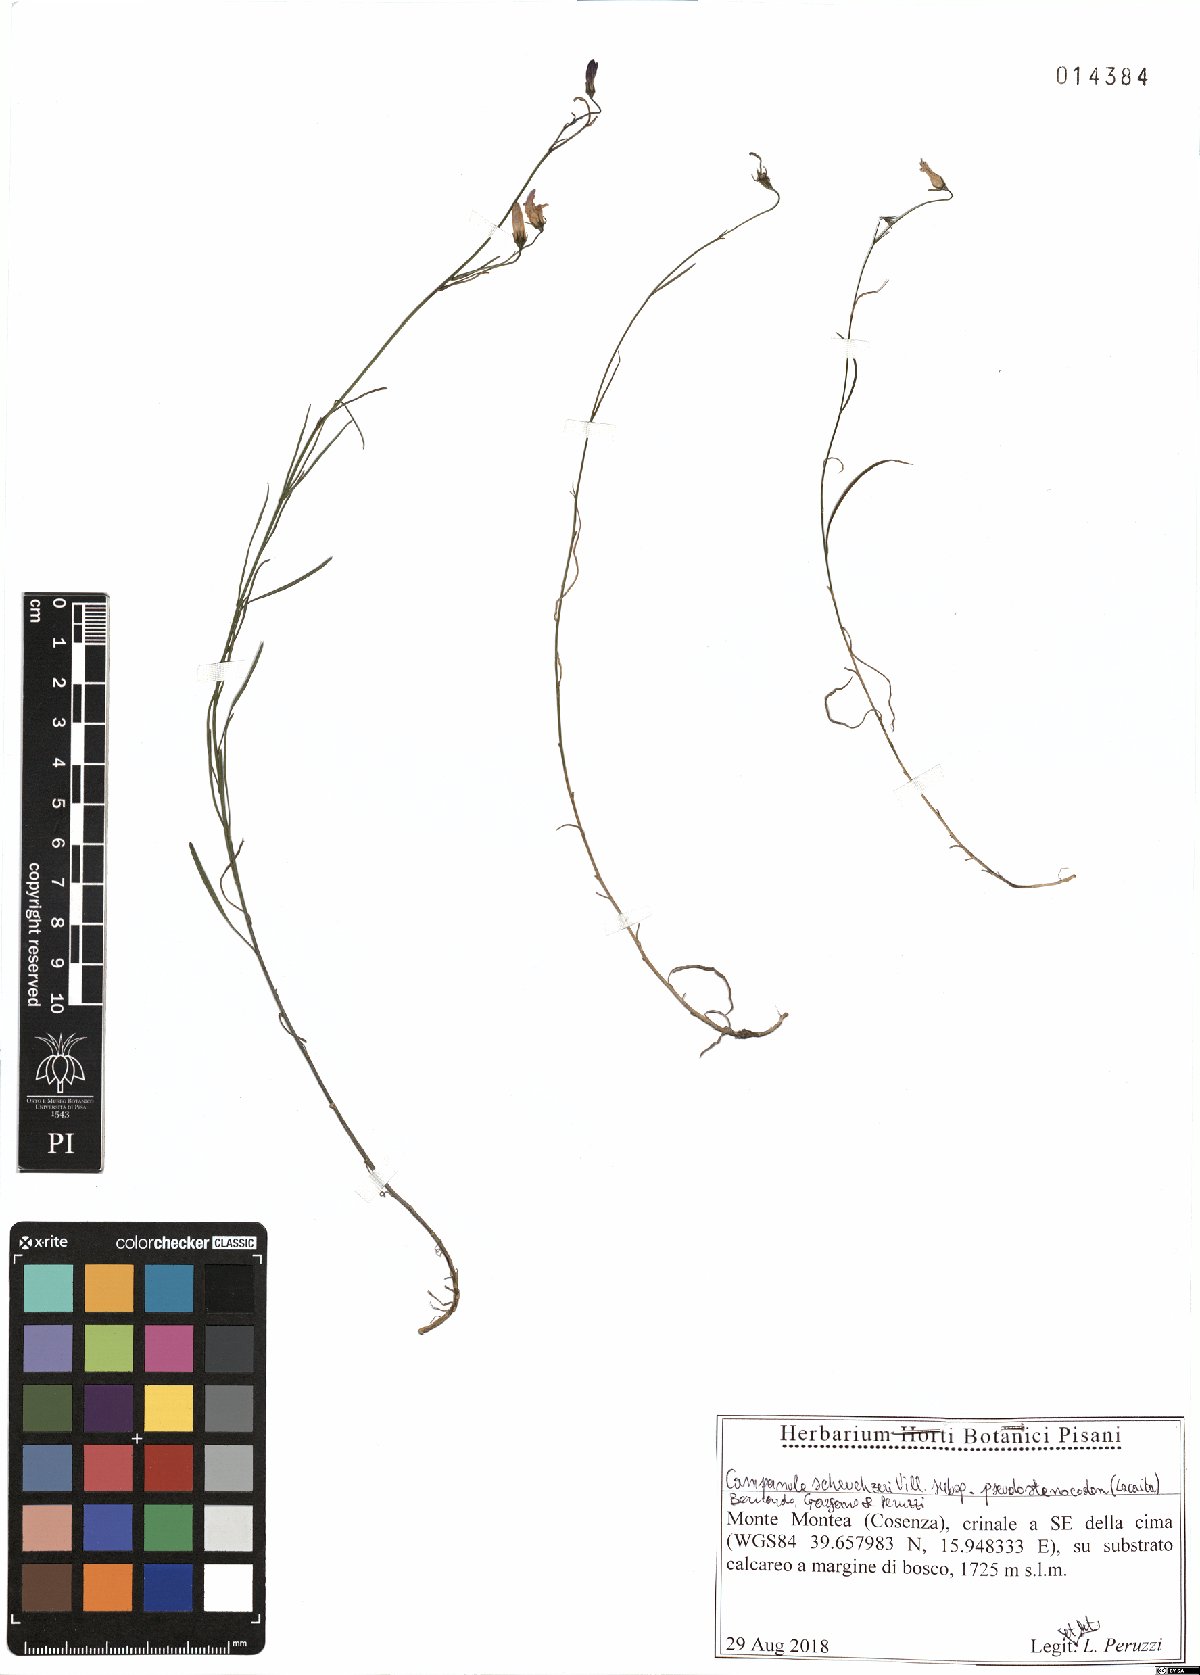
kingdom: Plantae
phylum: Tracheophyta
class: Magnoliopsida
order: Asterales
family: Campanulaceae
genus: Campanula
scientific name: Campanula pseudostenocodon
